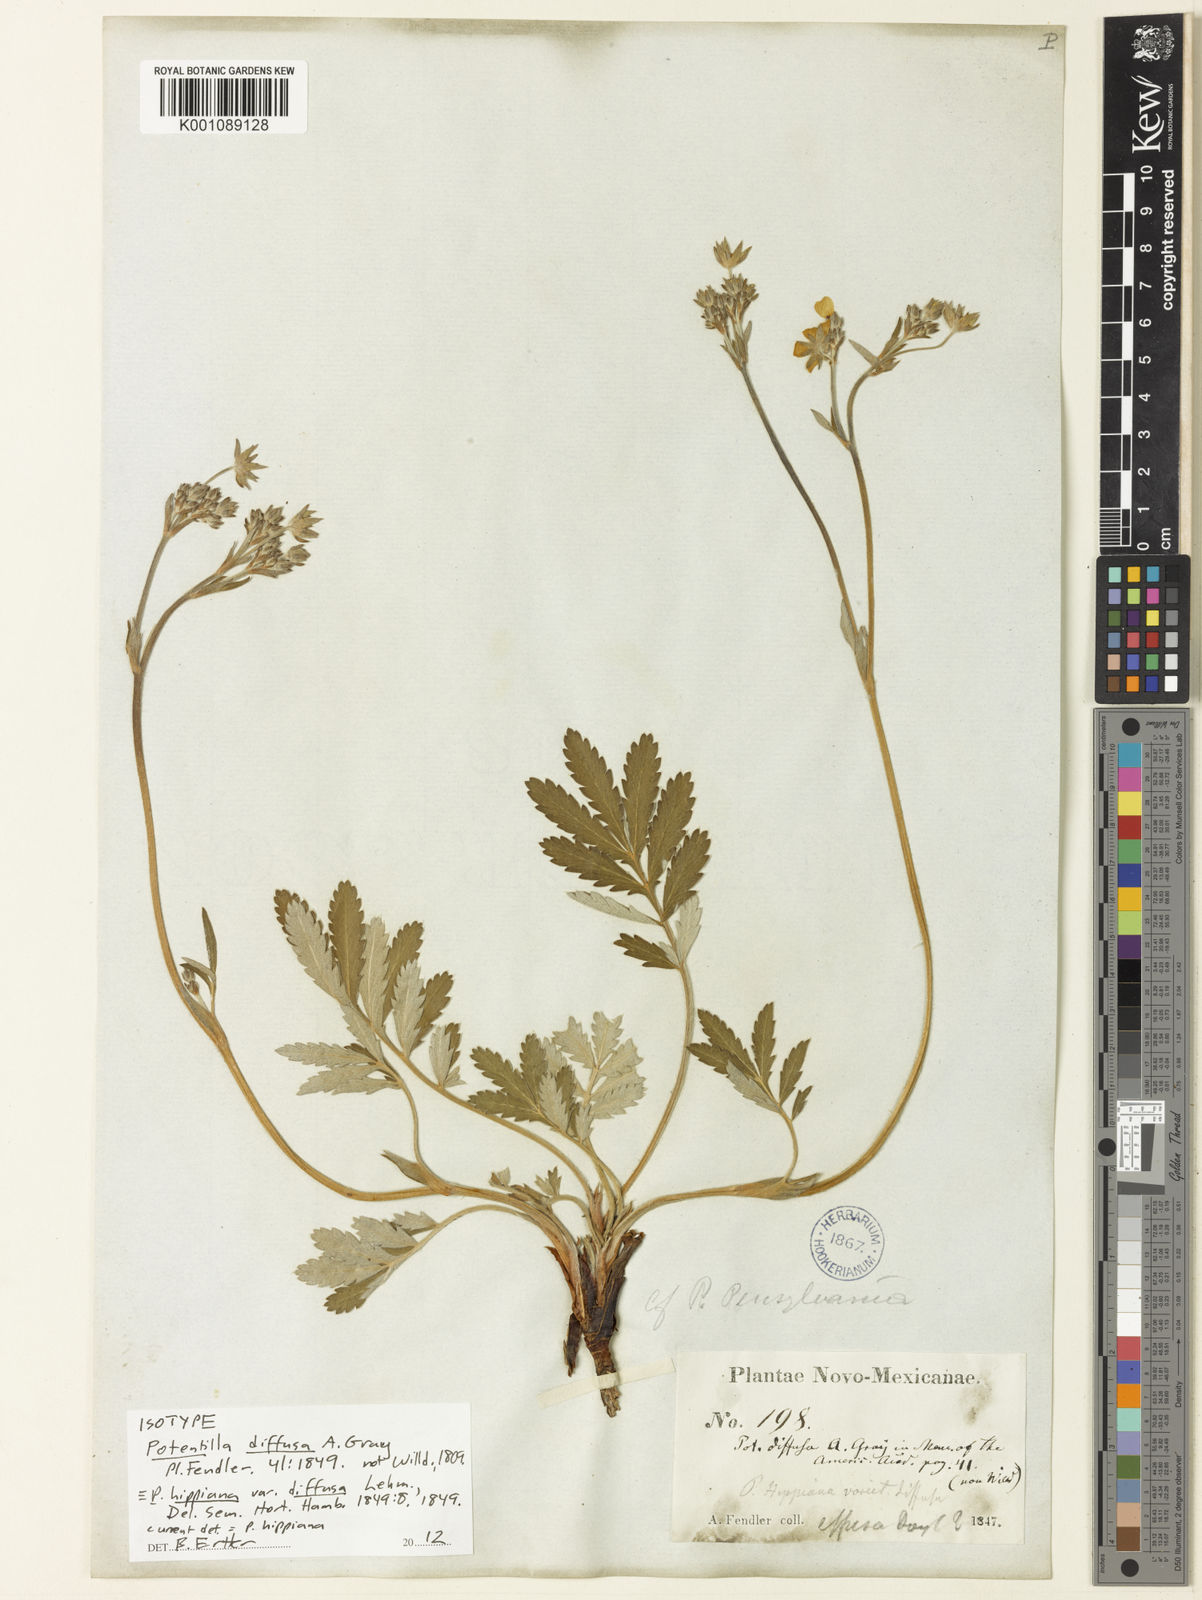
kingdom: Plantae
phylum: Tracheophyta
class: Magnoliopsida
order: Rosales
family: Rosaceae
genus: Potentilla
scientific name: Potentilla hippiana
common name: Woolly cinquefoil
